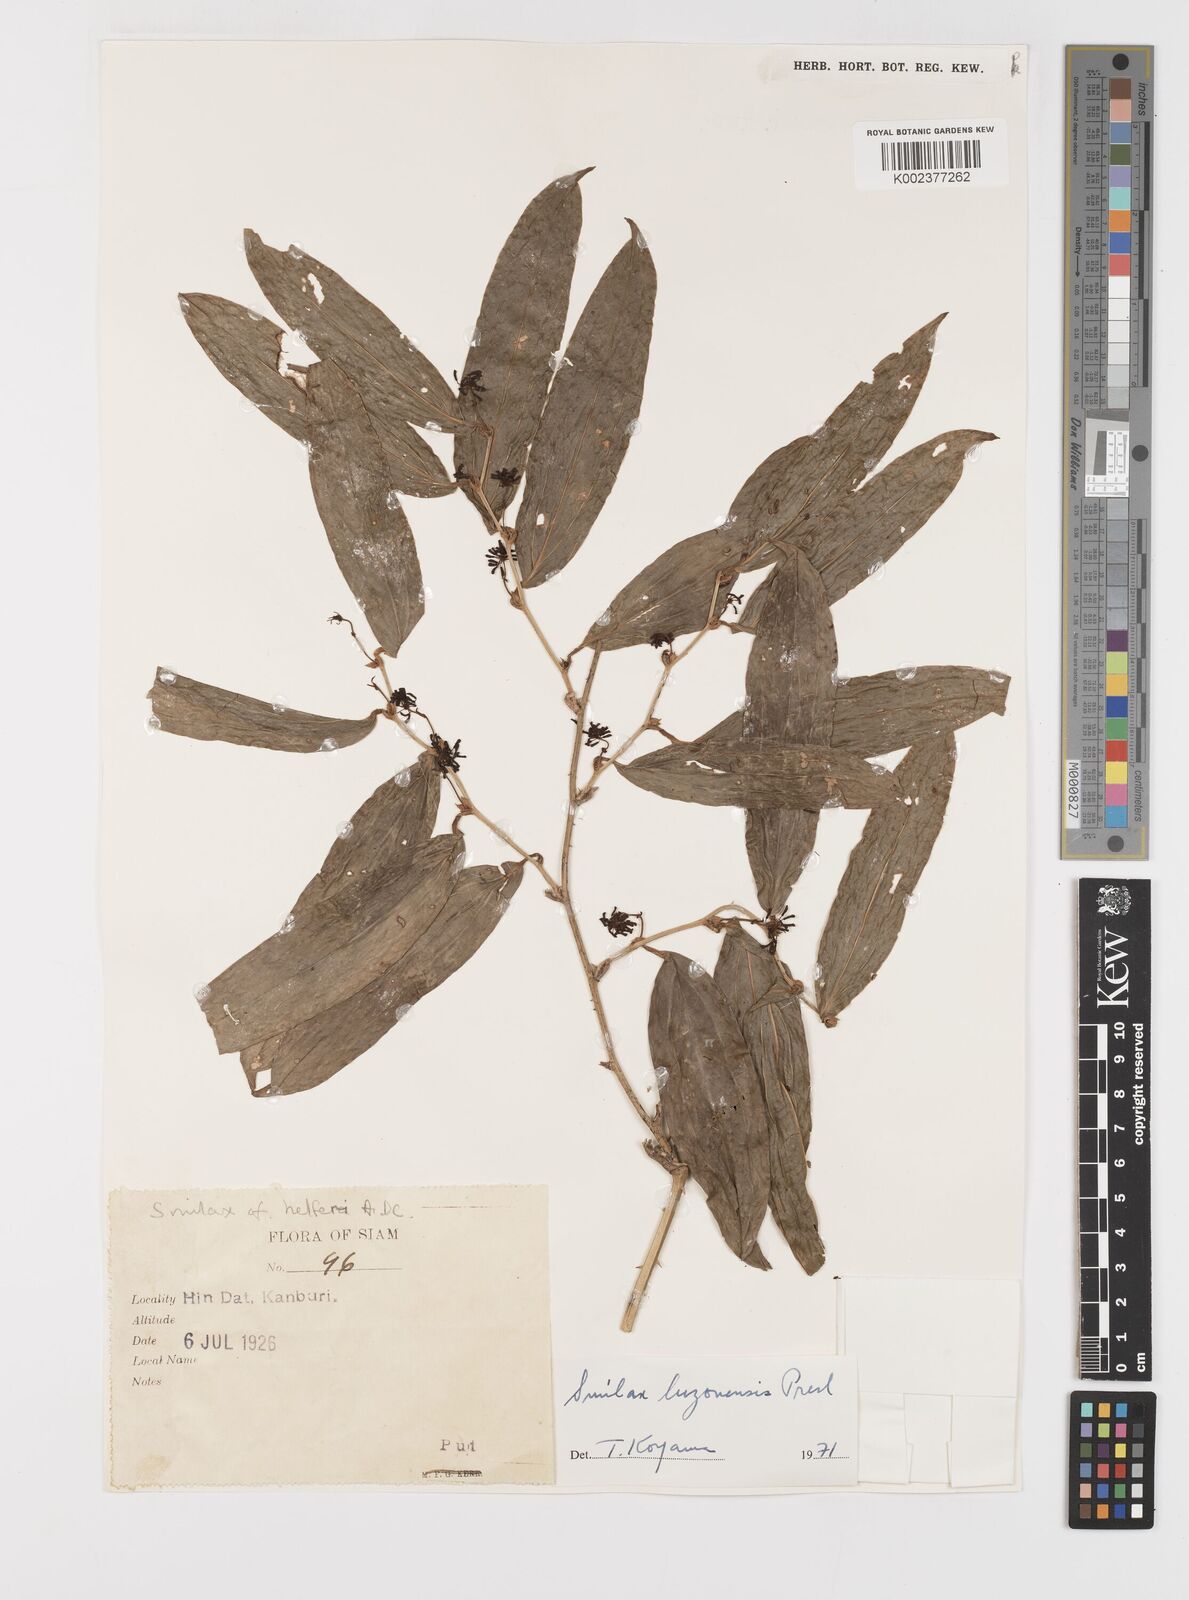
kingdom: Plantae
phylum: Tracheophyta
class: Liliopsida
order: Liliales
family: Smilacaceae
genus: Smilax
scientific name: Smilax luzonensis
